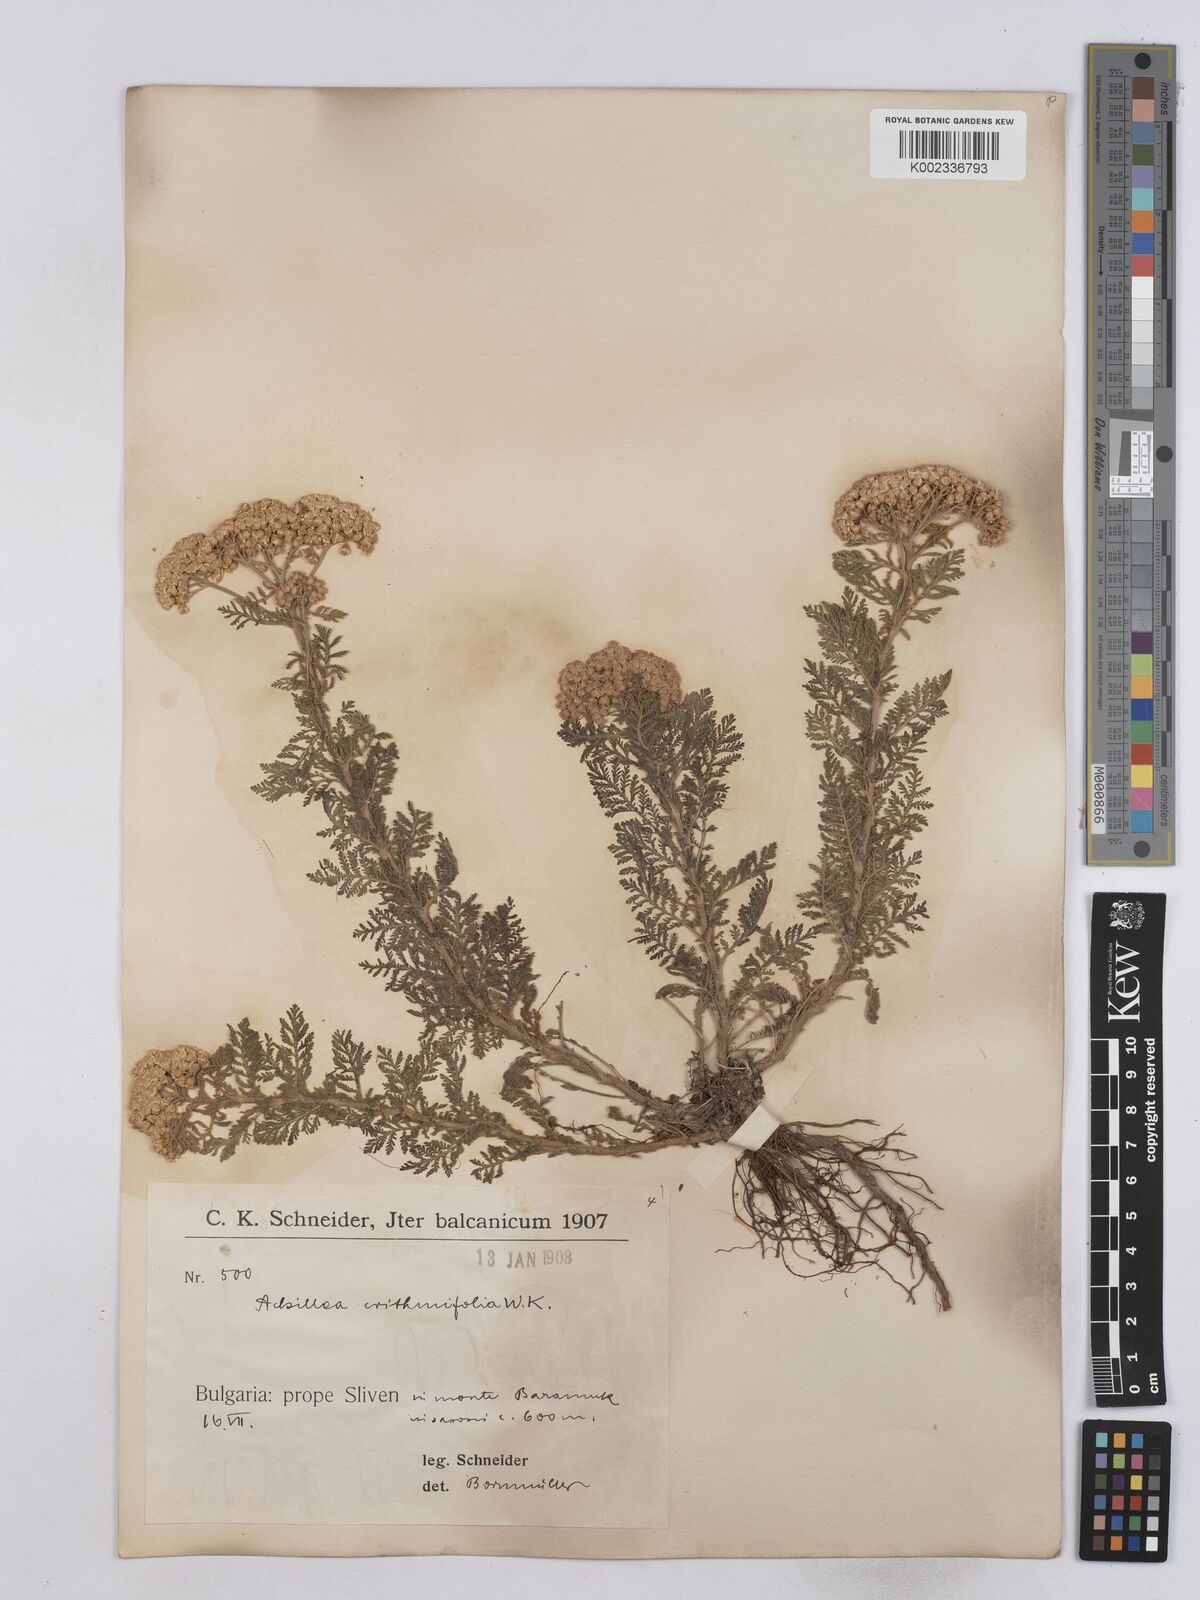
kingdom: Plantae
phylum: Tracheophyta
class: Magnoliopsida
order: Asterales
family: Asteraceae
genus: Achillea
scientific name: Achillea crithmifolia
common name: Yarrow
